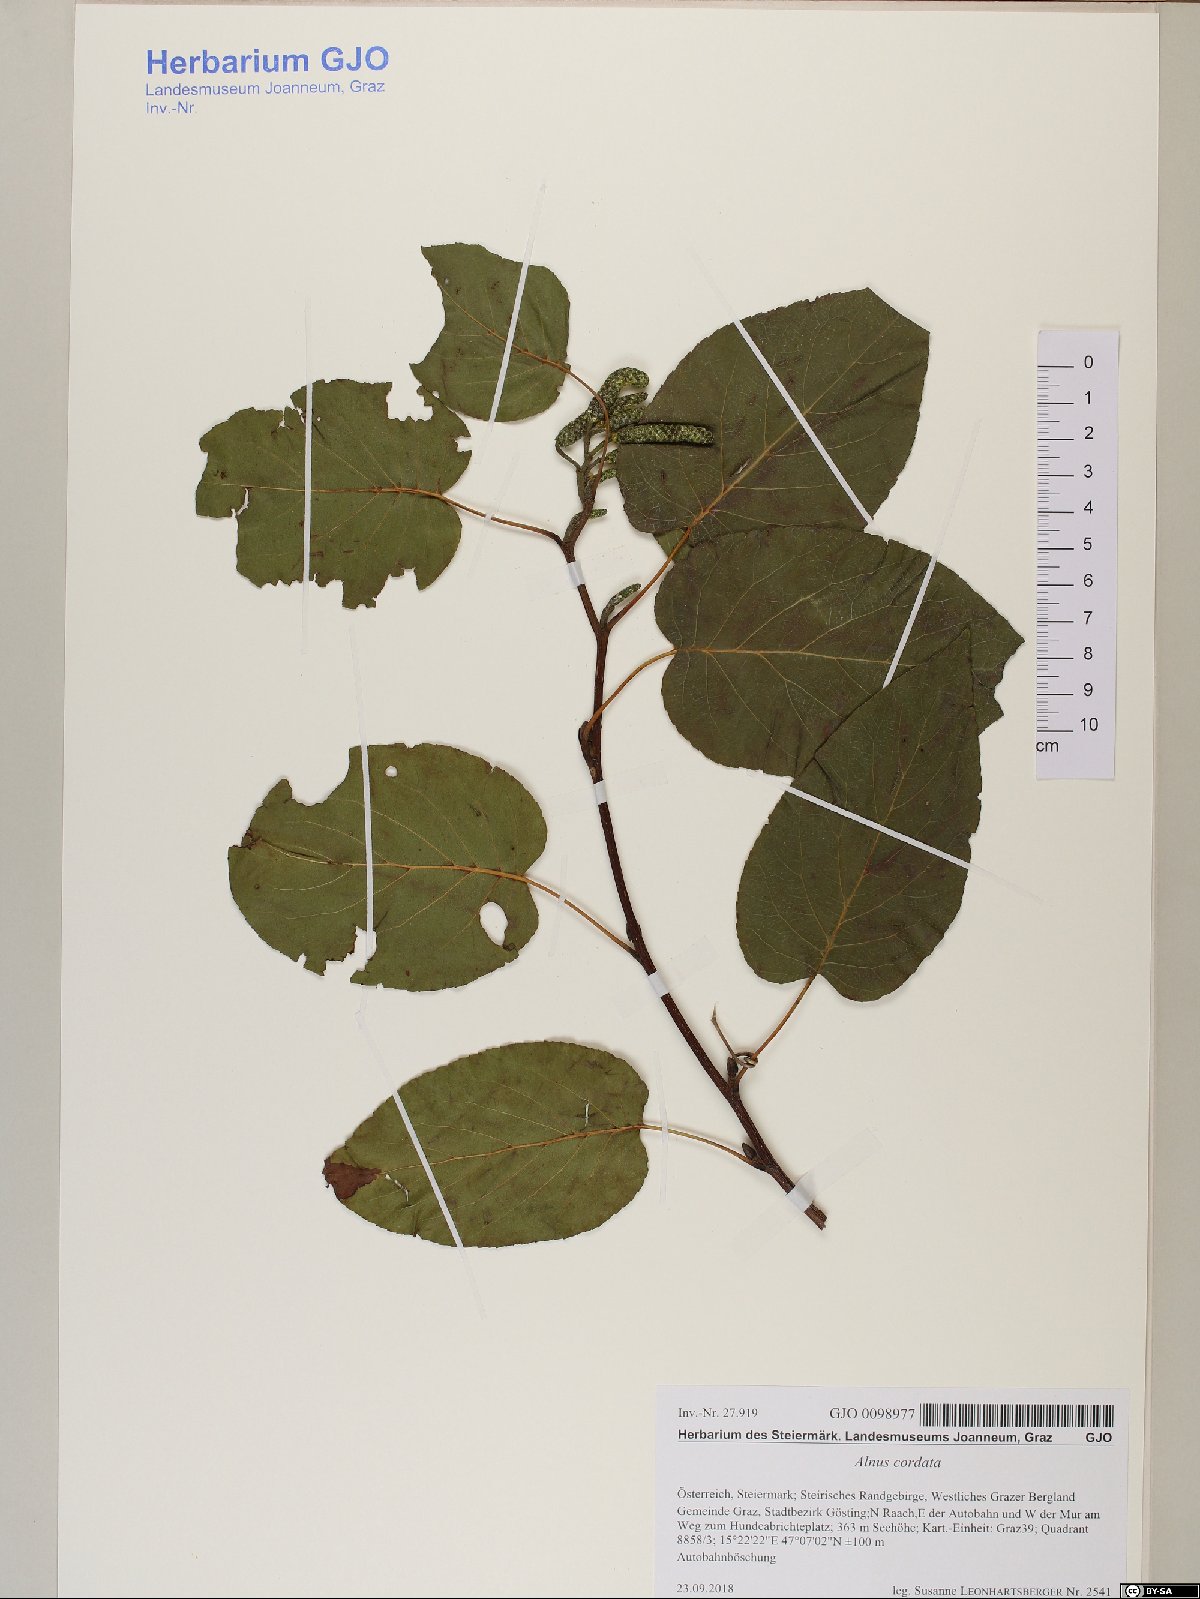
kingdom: Plantae
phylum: Tracheophyta
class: Magnoliopsida
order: Fagales
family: Betulaceae
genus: Alnus
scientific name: Alnus cordata
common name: Italian alder
